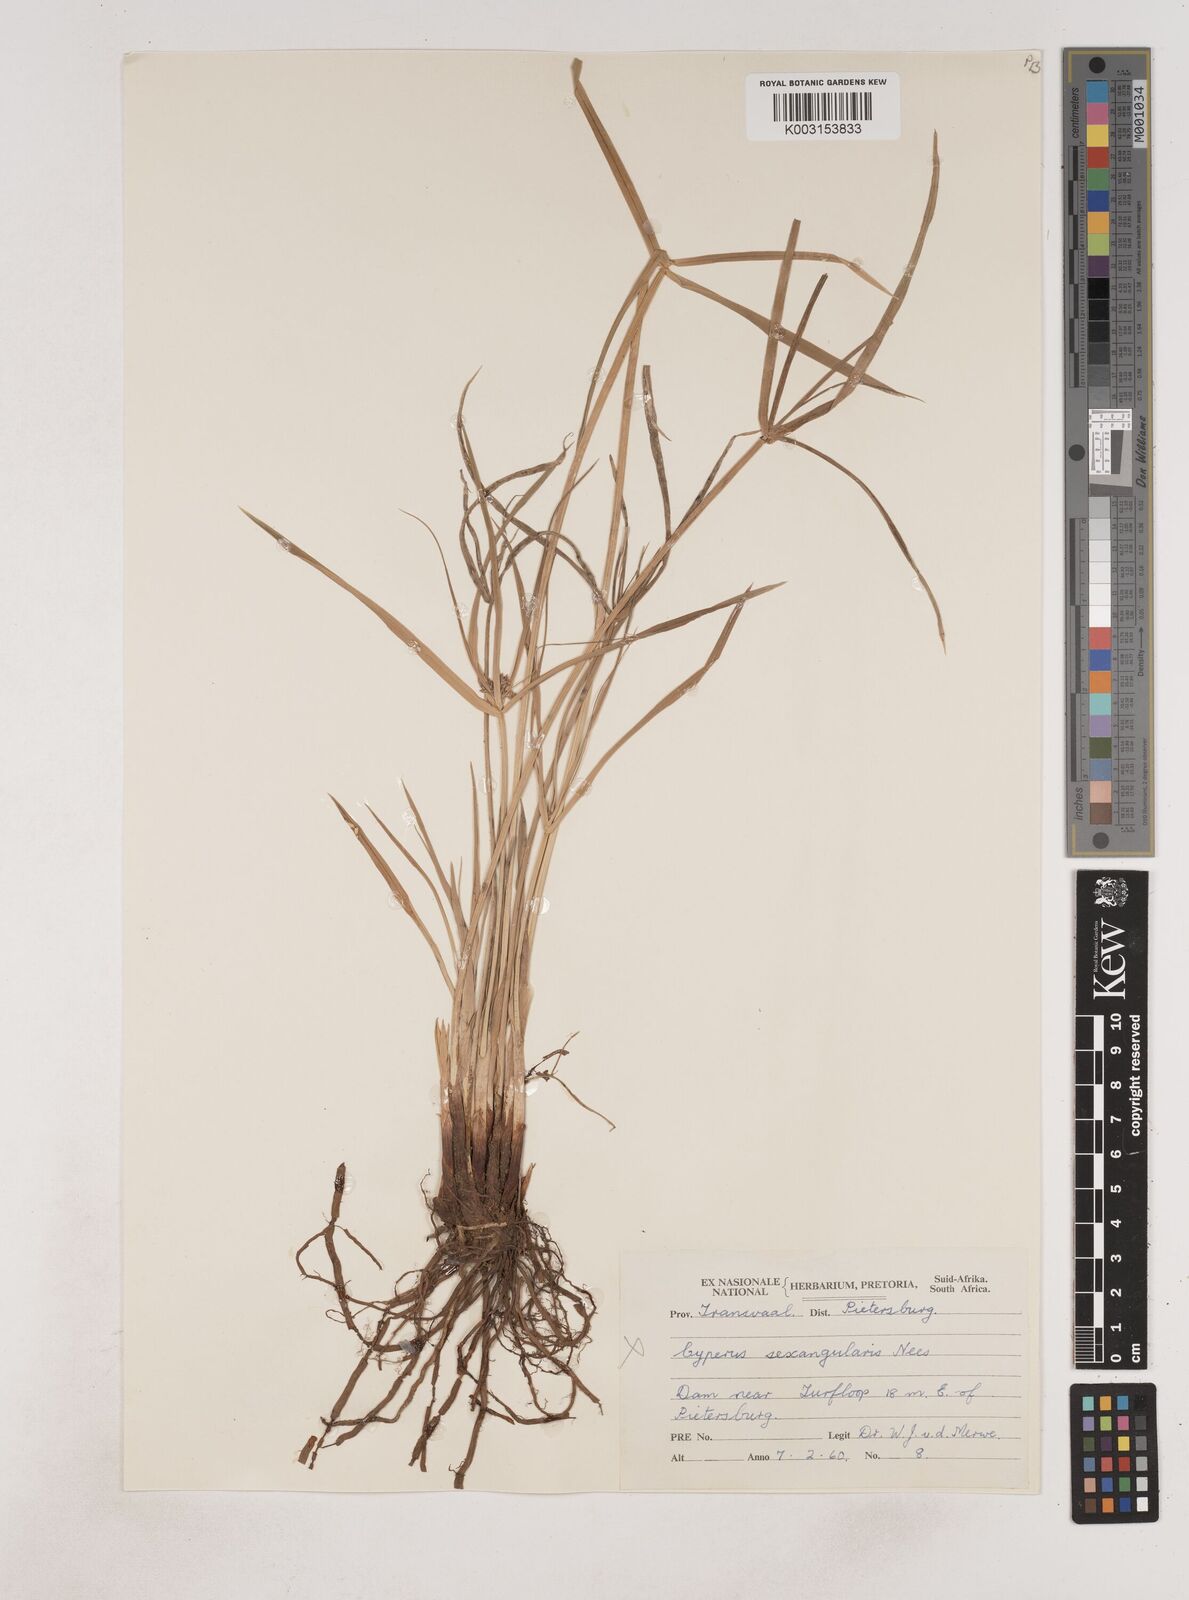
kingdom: Plantae
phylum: Tracheophyta
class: Liliopsida
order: Poales
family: Cyperaceae
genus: Cyperus
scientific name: Cyperus
